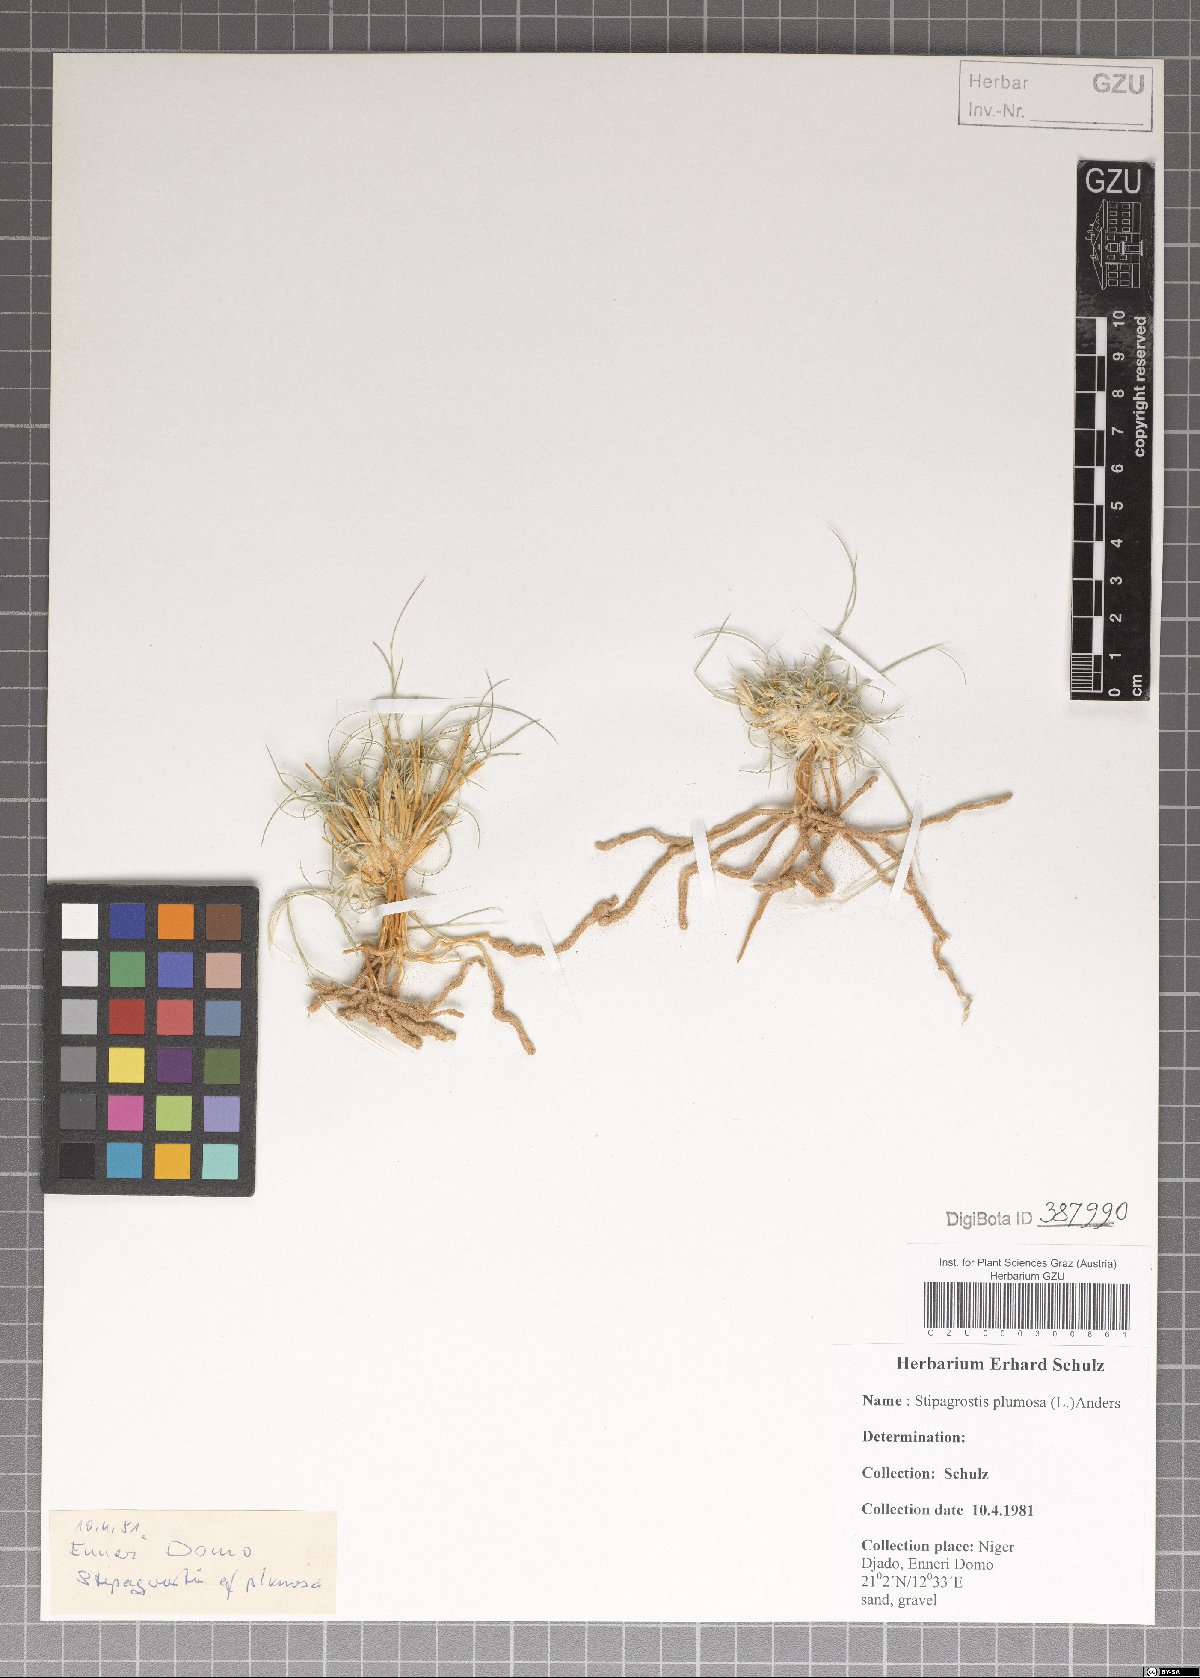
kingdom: Plantae
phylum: Tracheophyta
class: Liliopsida
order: Poales
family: Poaceae
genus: Stipagrostis
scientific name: Stipagrostis plumosa
